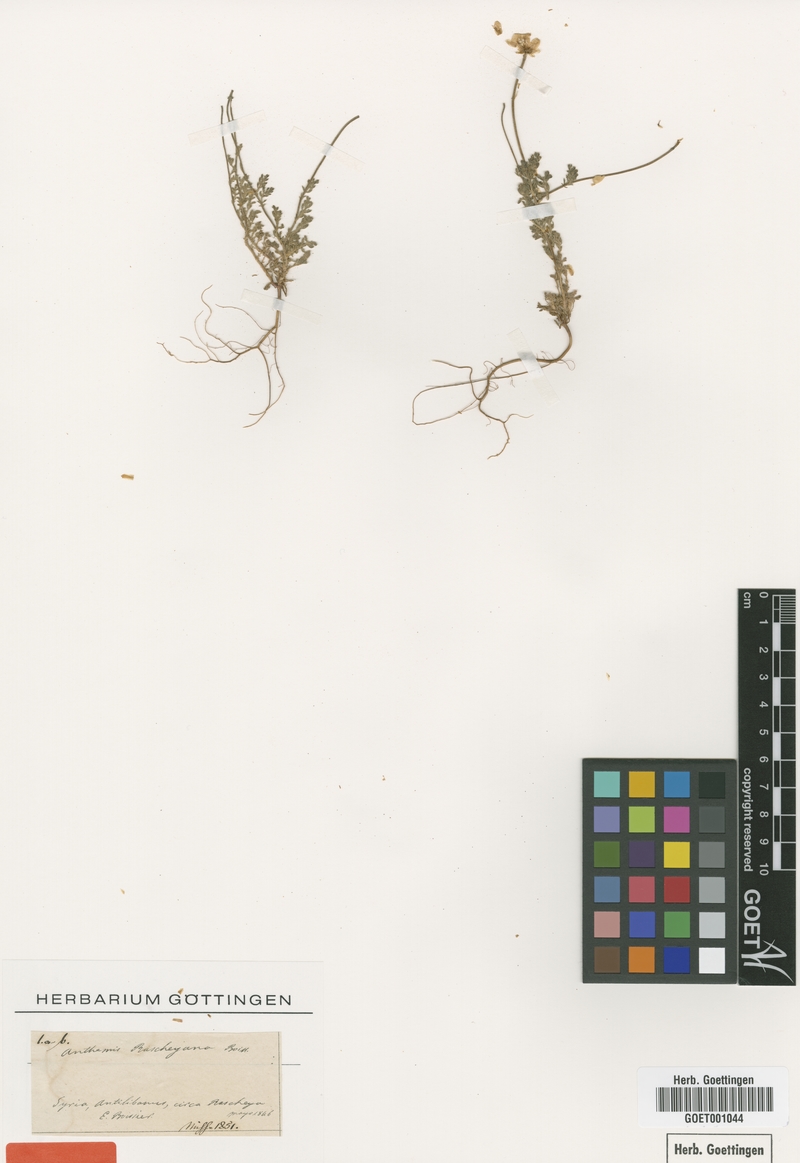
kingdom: Plantae
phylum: Tracheophyta
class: Magnoliopsida
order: Asterales
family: Asteraceae
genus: Anthemis
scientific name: Anthemis rascheyana
